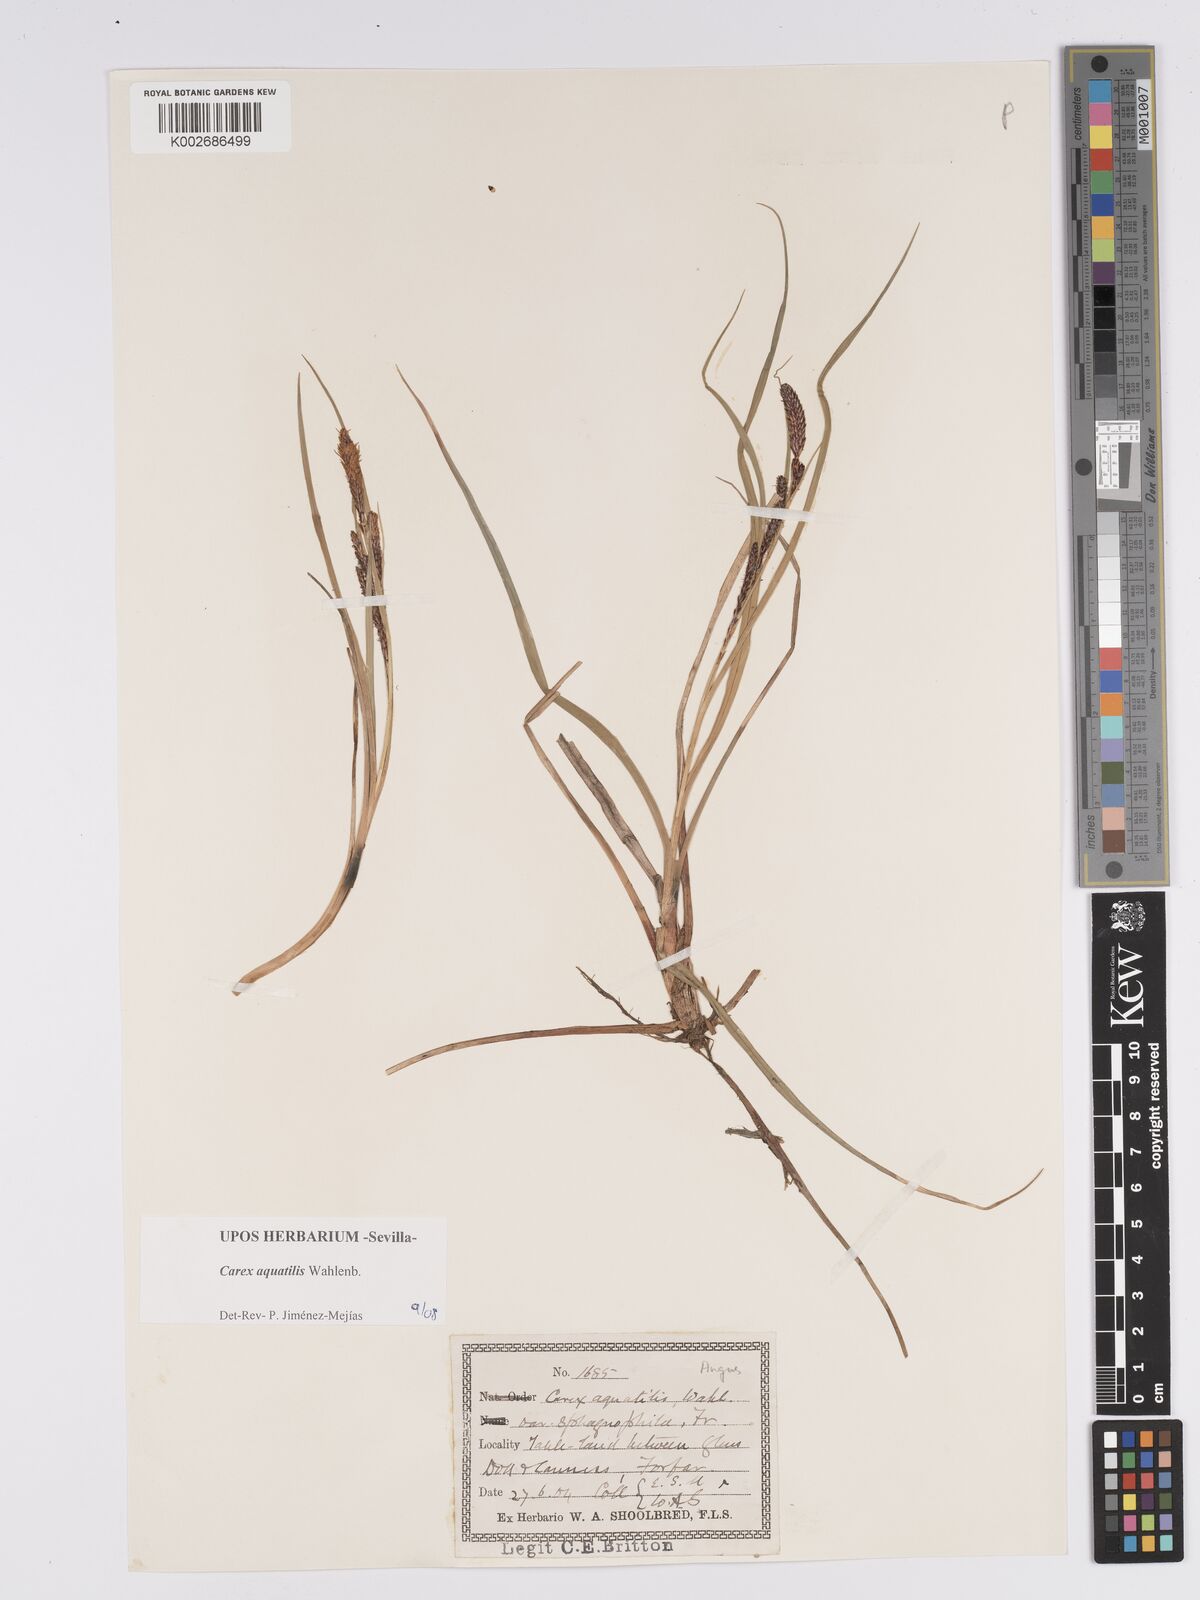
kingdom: Plantae
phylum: Tracheophyta
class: Liliopsida
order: Poales
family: Cyperaceae
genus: Carex
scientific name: Carex aquatilis
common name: Water sedge
